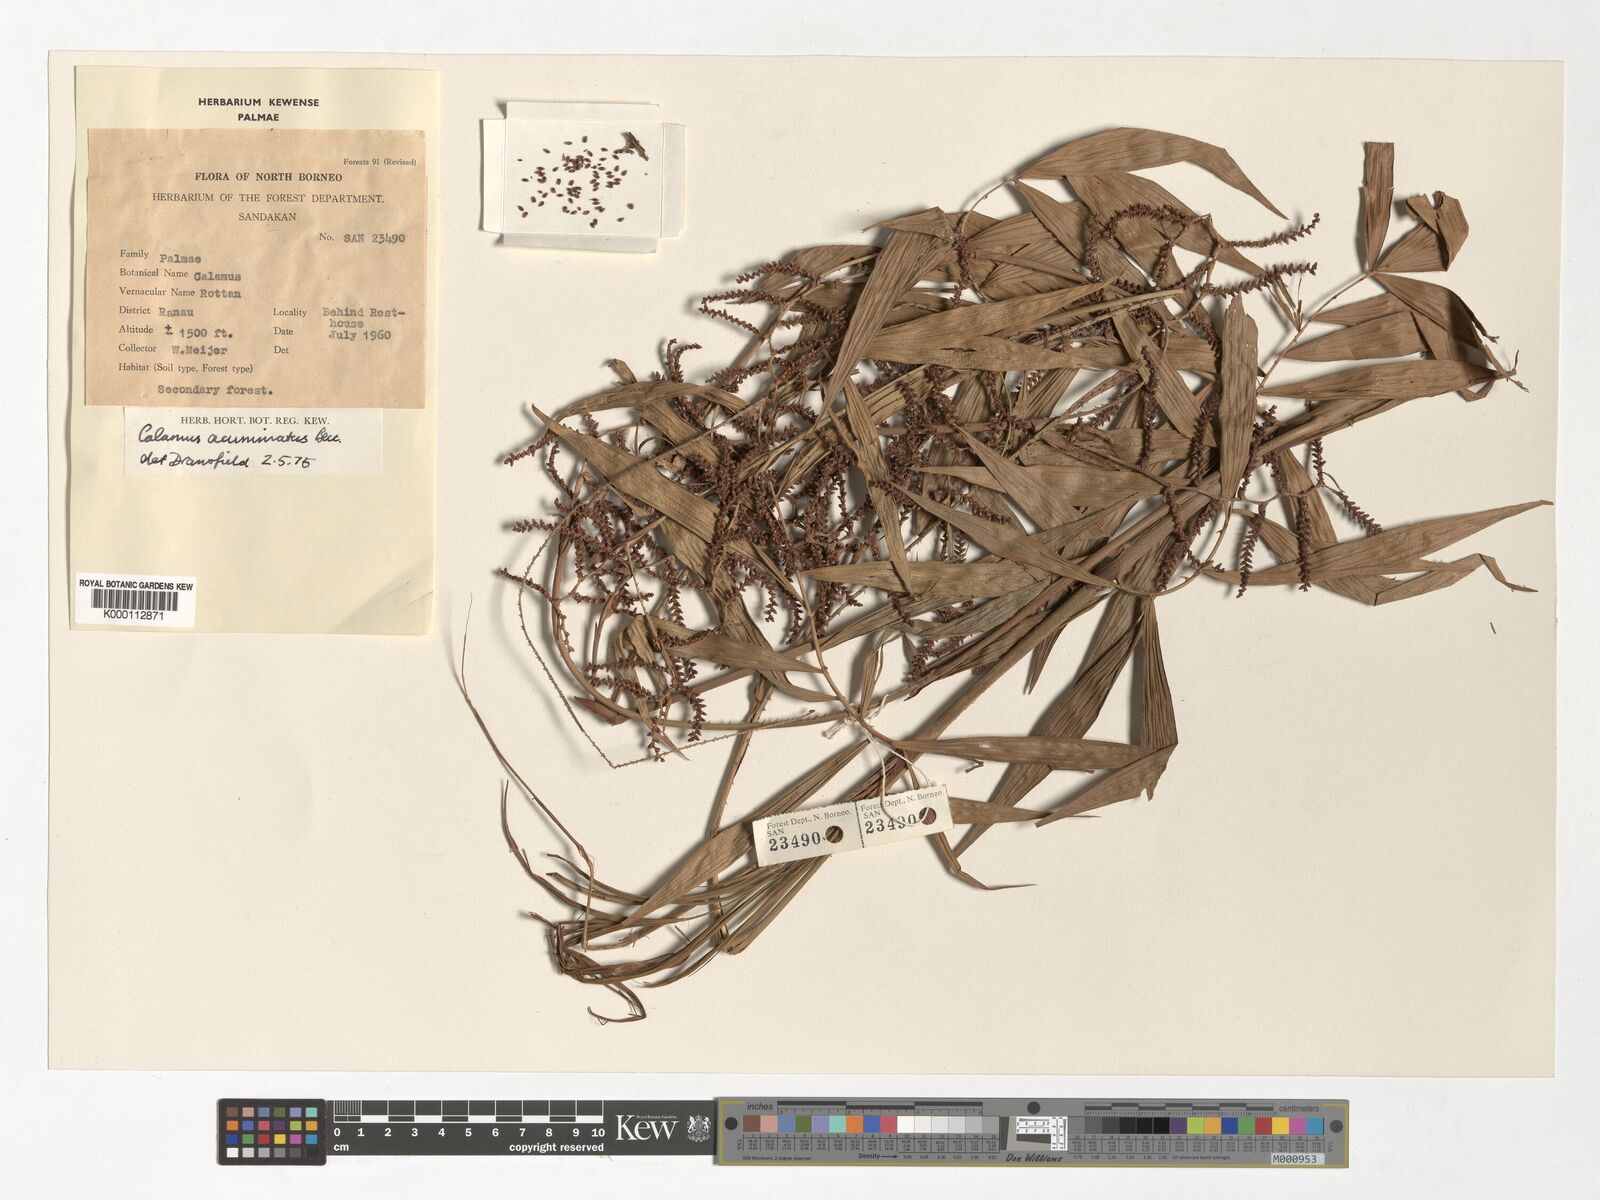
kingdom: Plantae
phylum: Tracheophyta
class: Liliopsida
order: Arecales
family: Arecaceae
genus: Calamus
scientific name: Calamus javensis
